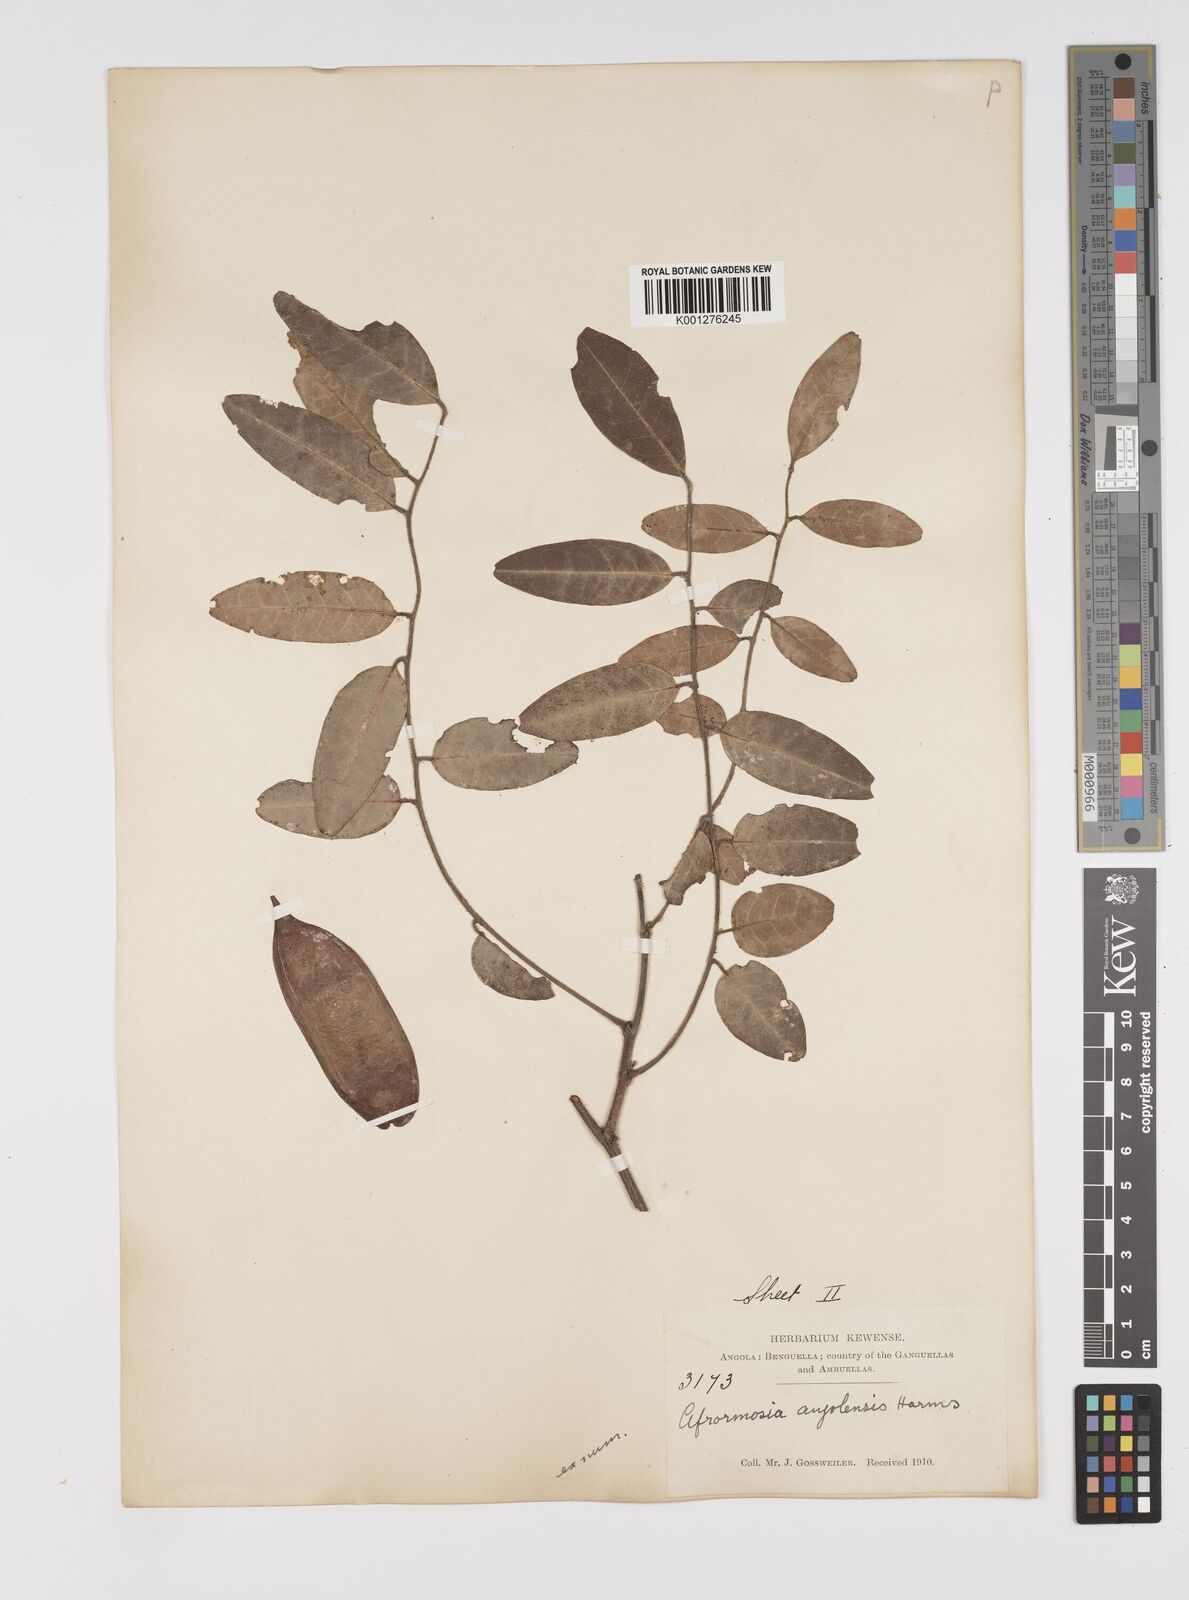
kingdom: Plantae
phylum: Tracheophyta
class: Magnoliopsida
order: Fabales
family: Fabaceae
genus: Pericopsis
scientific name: Pericopsis angolensis
